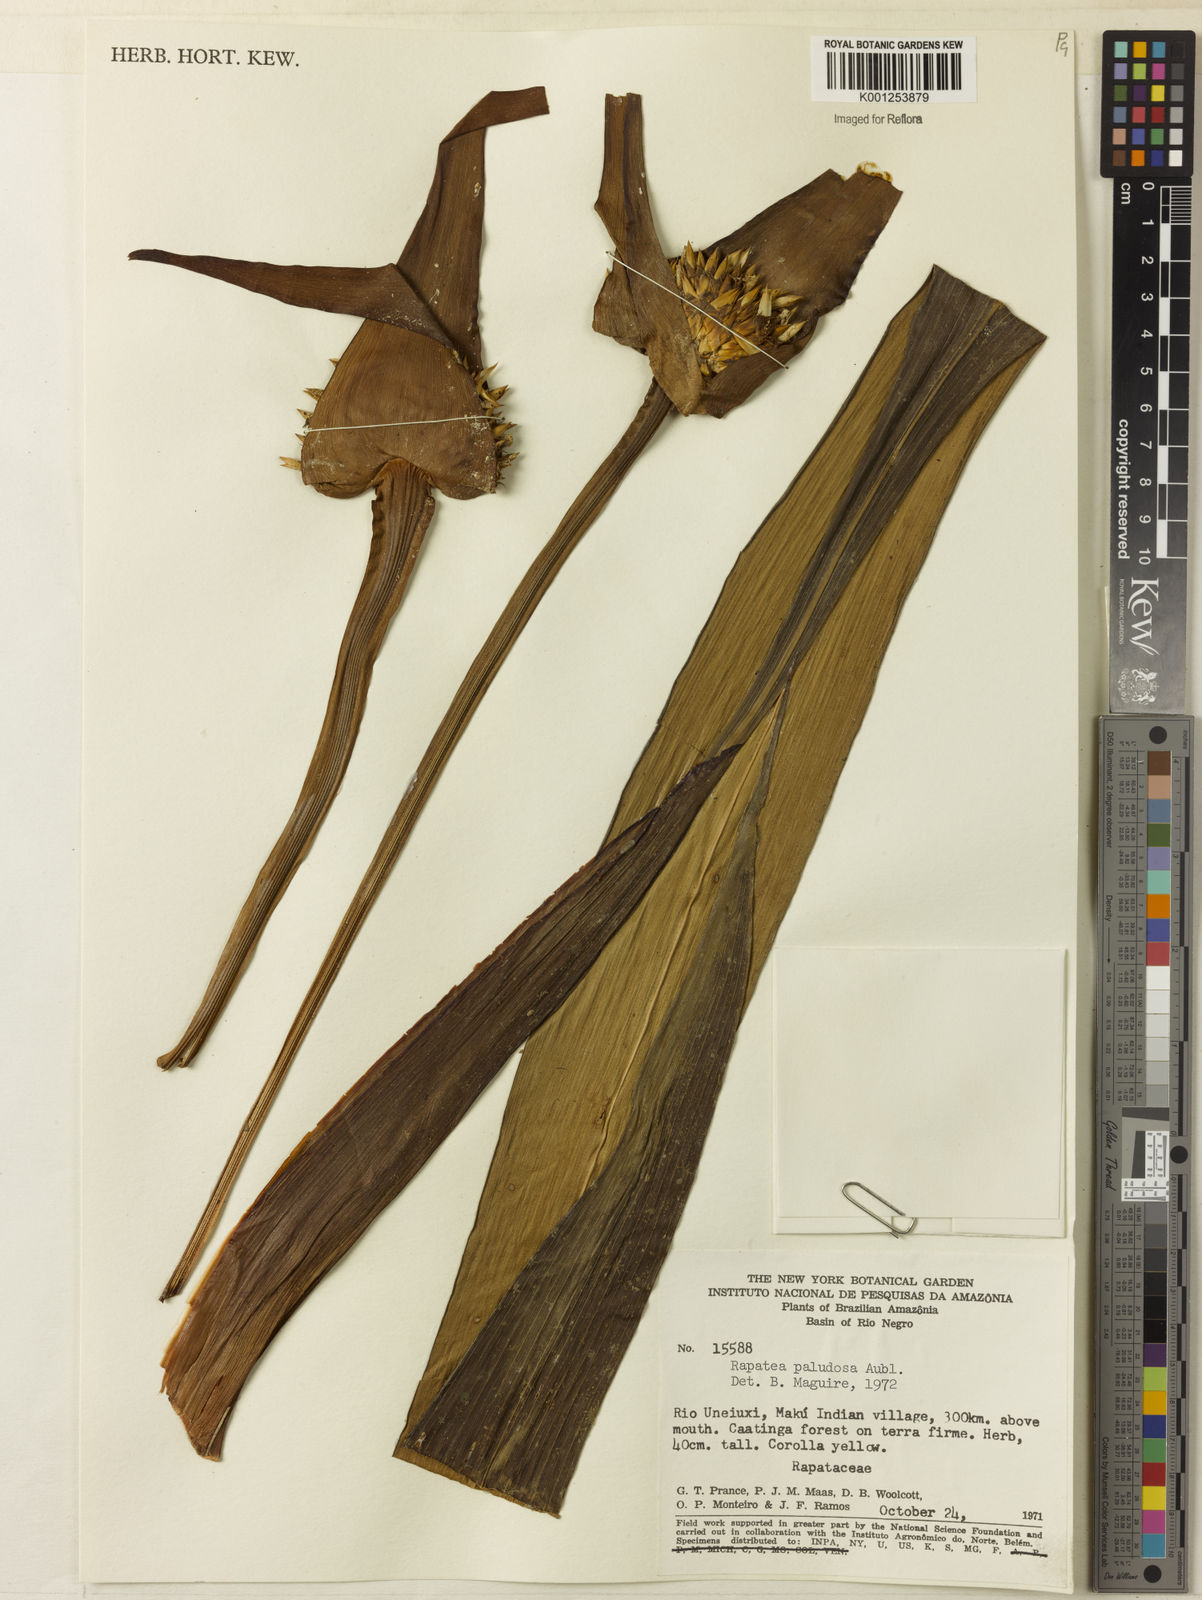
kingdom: Plantae
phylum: Tracheophyta
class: Liliopsida
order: Poales
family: Rapateaceae
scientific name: Rapateaceae
